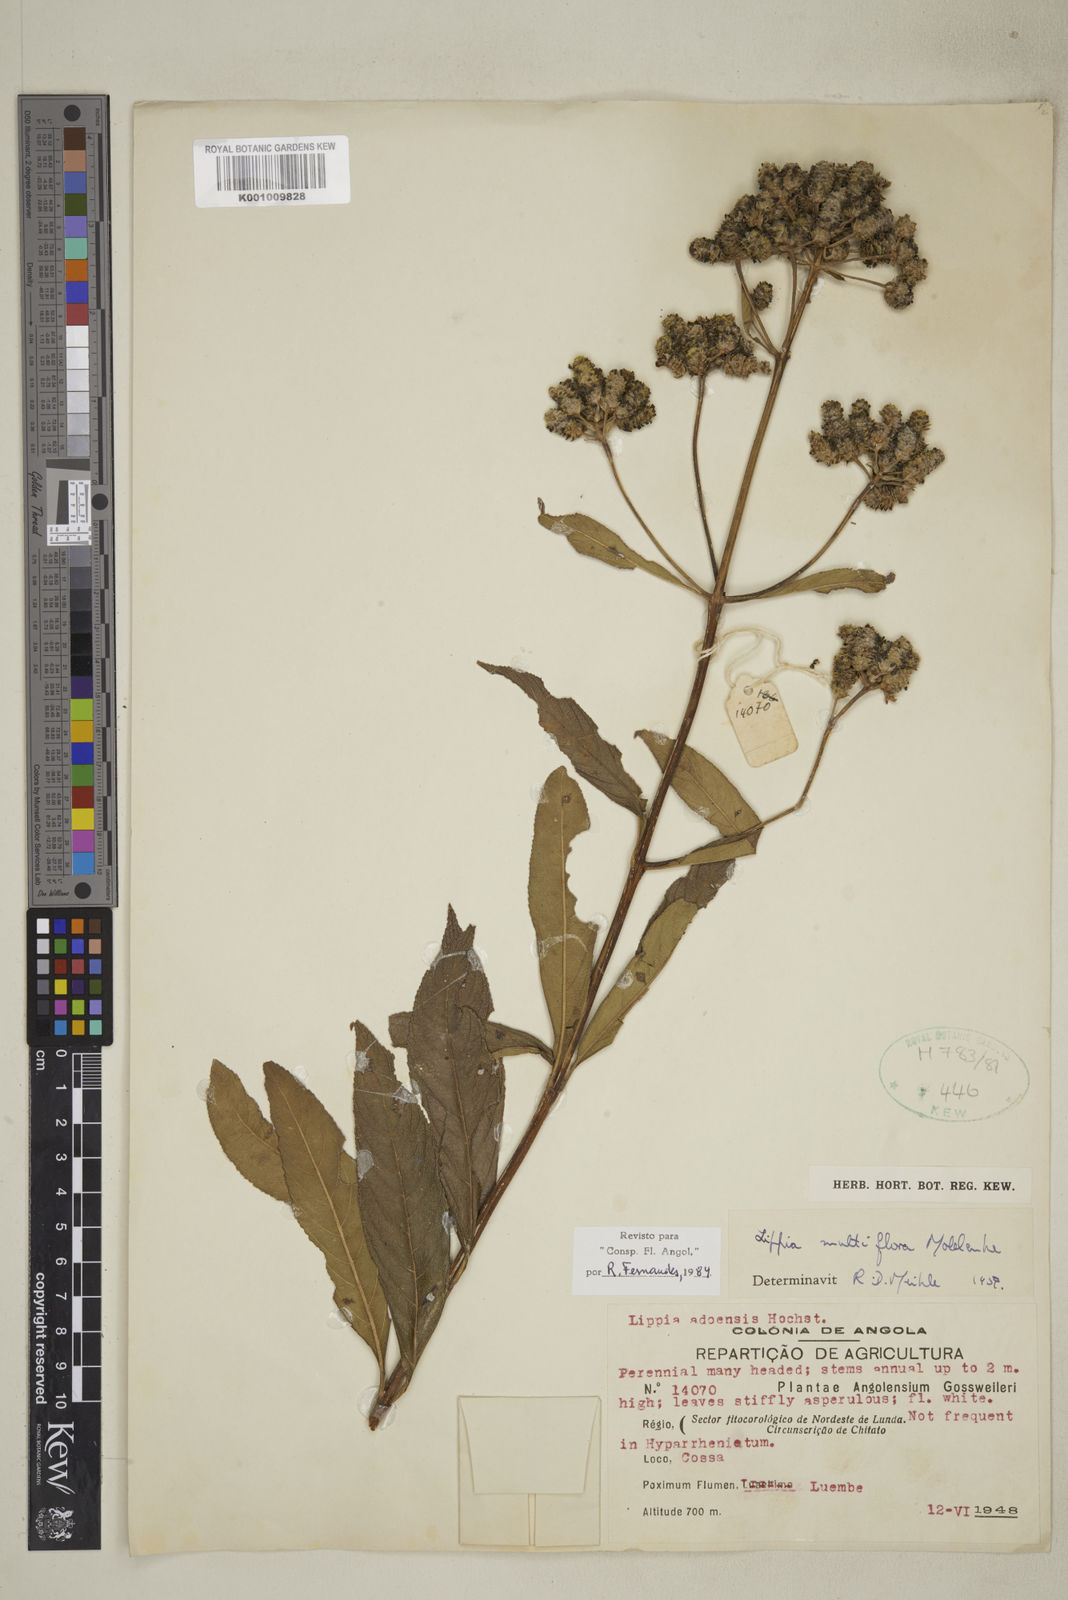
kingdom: Plantae
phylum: Tracheophyta
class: Magnoliopsida
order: Lamiales
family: Verbenaceae
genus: Lippia
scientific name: Lippia multiflora
